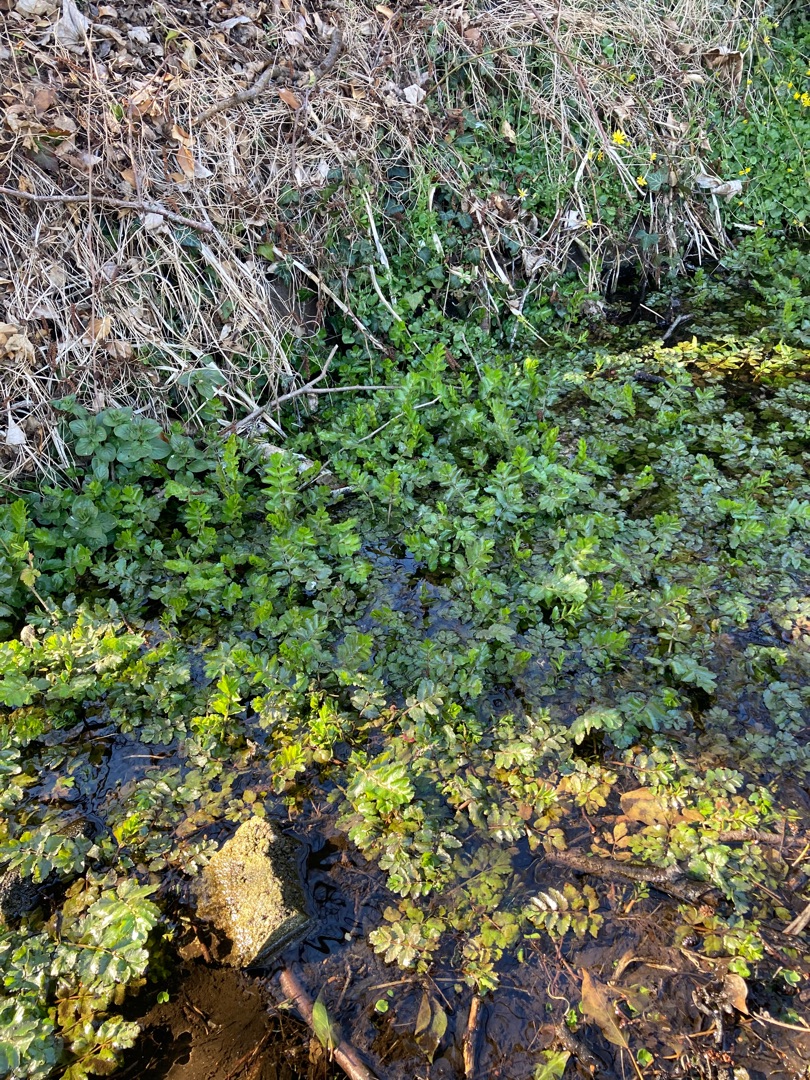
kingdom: Plantae
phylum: Tracheophyta
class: Magnoliopsida
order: Apiales
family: Apiaceae
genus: Berula
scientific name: Berula erecta
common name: Sideskærm
